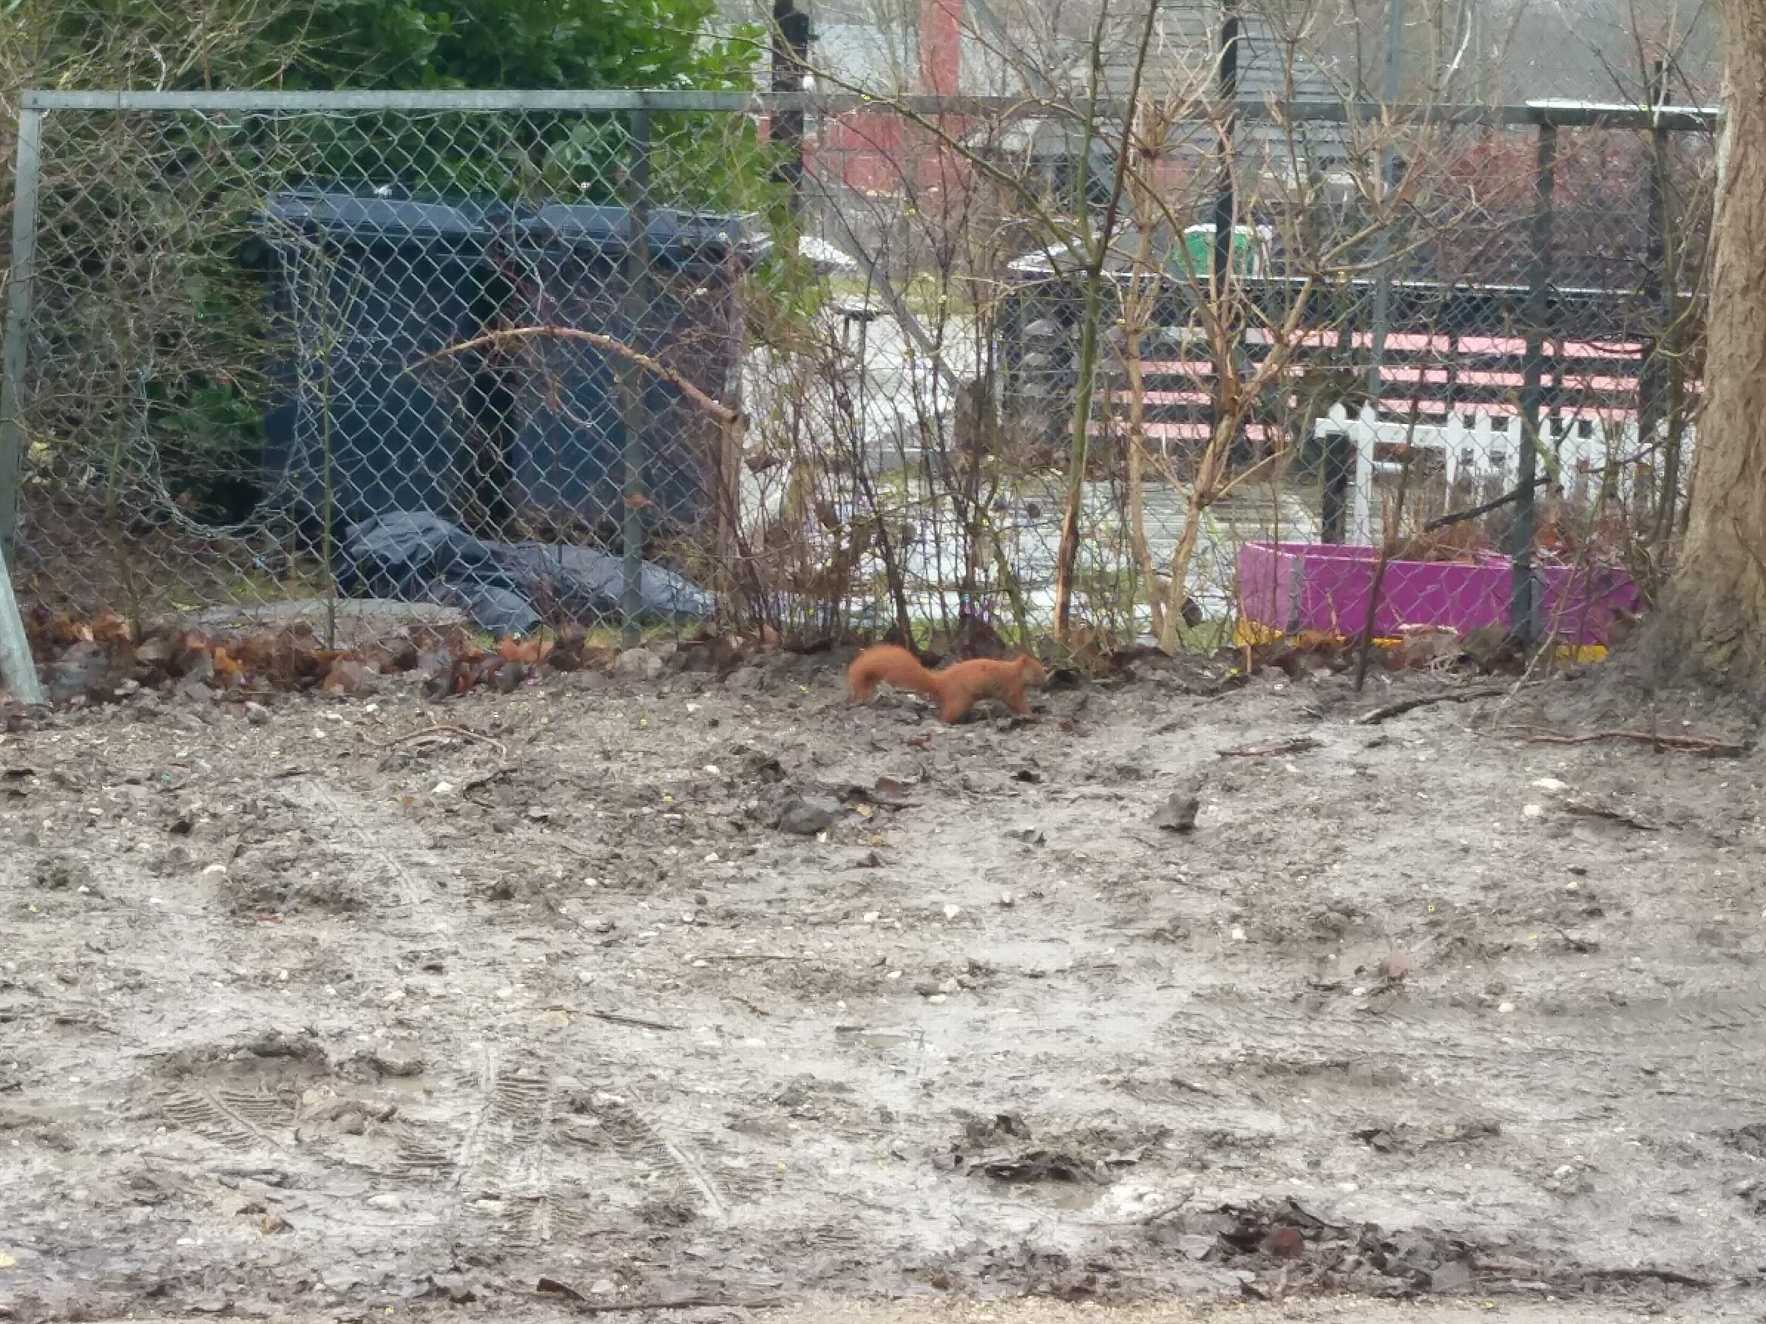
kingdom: Animalia
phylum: Chordata
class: Mammalia
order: Rodentia
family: Sciuridae
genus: Sciurus
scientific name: Sciurus vulgaris
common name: Egern
